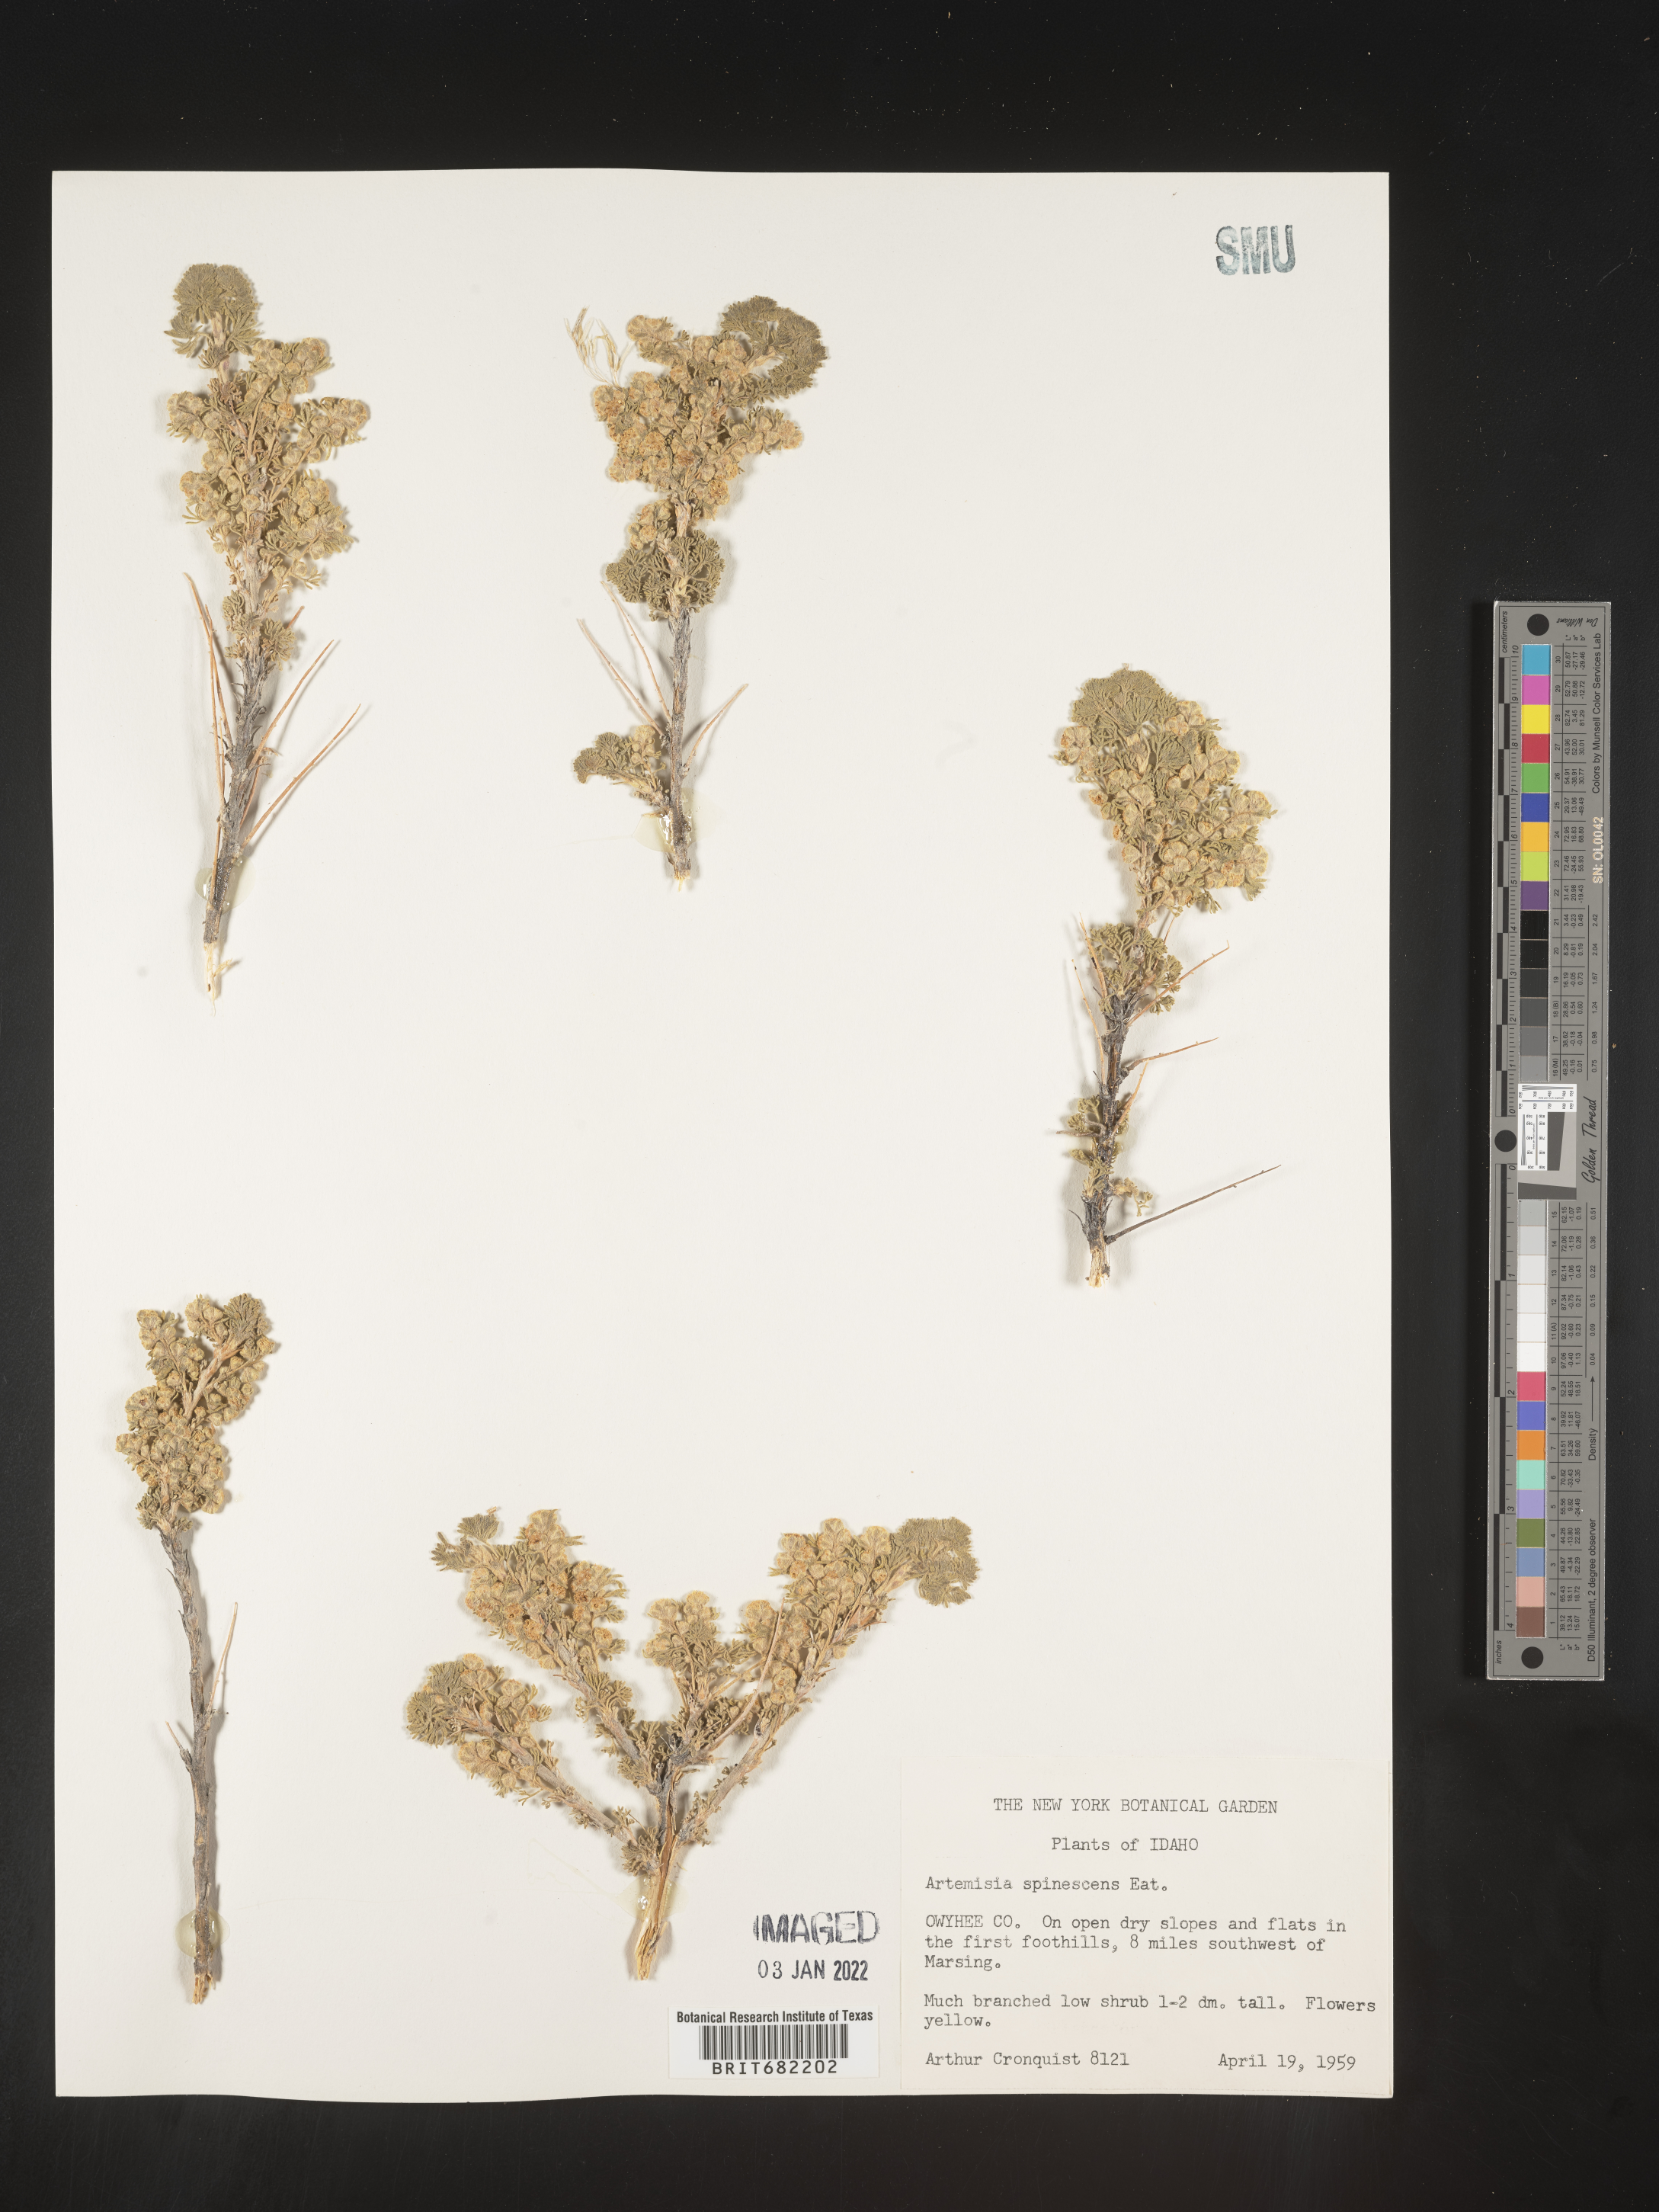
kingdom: Plantae
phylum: Tracheophyta
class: Magnoliopsida
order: Asterales
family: Asteraceae
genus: Artemisia
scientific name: Artemisia spinescens
